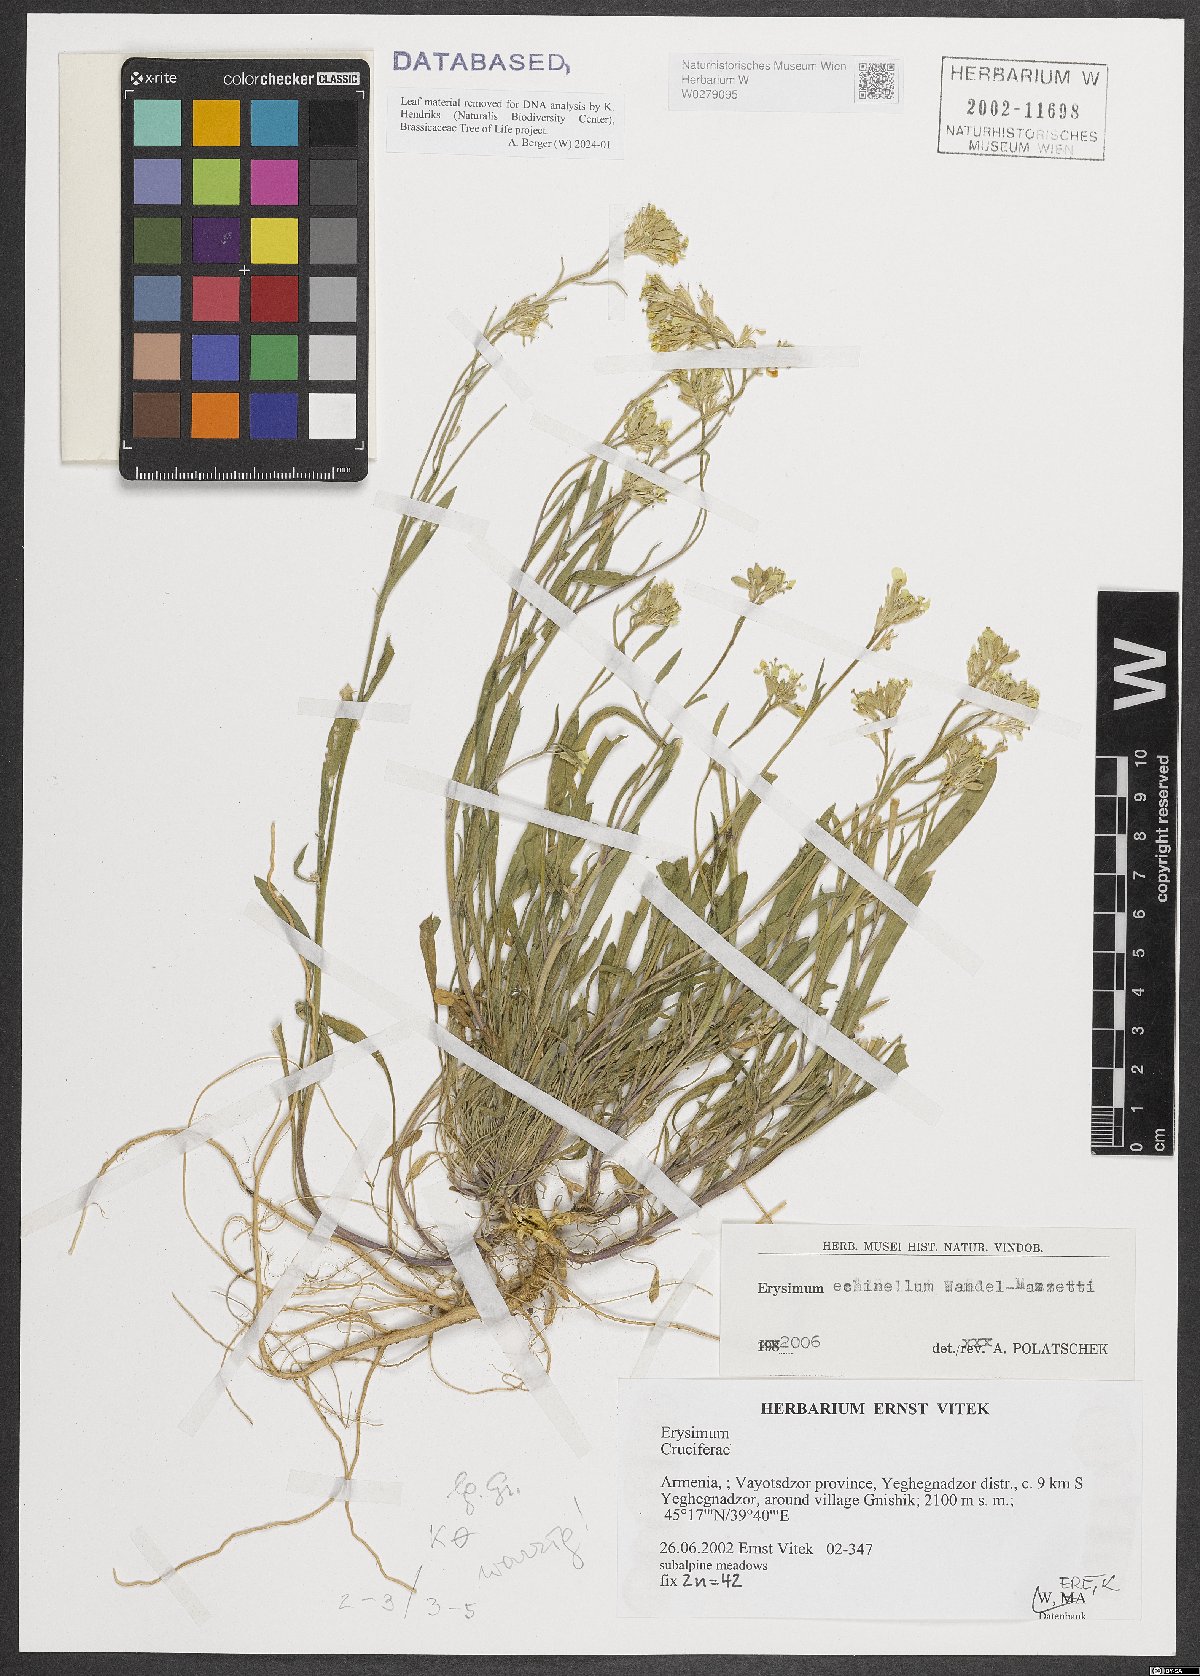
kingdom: Plantae
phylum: Tracheophyta
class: Magnoliopsida
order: Brassicales
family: Brassicaceae
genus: Erysimum
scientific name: Erysimum echinellum
